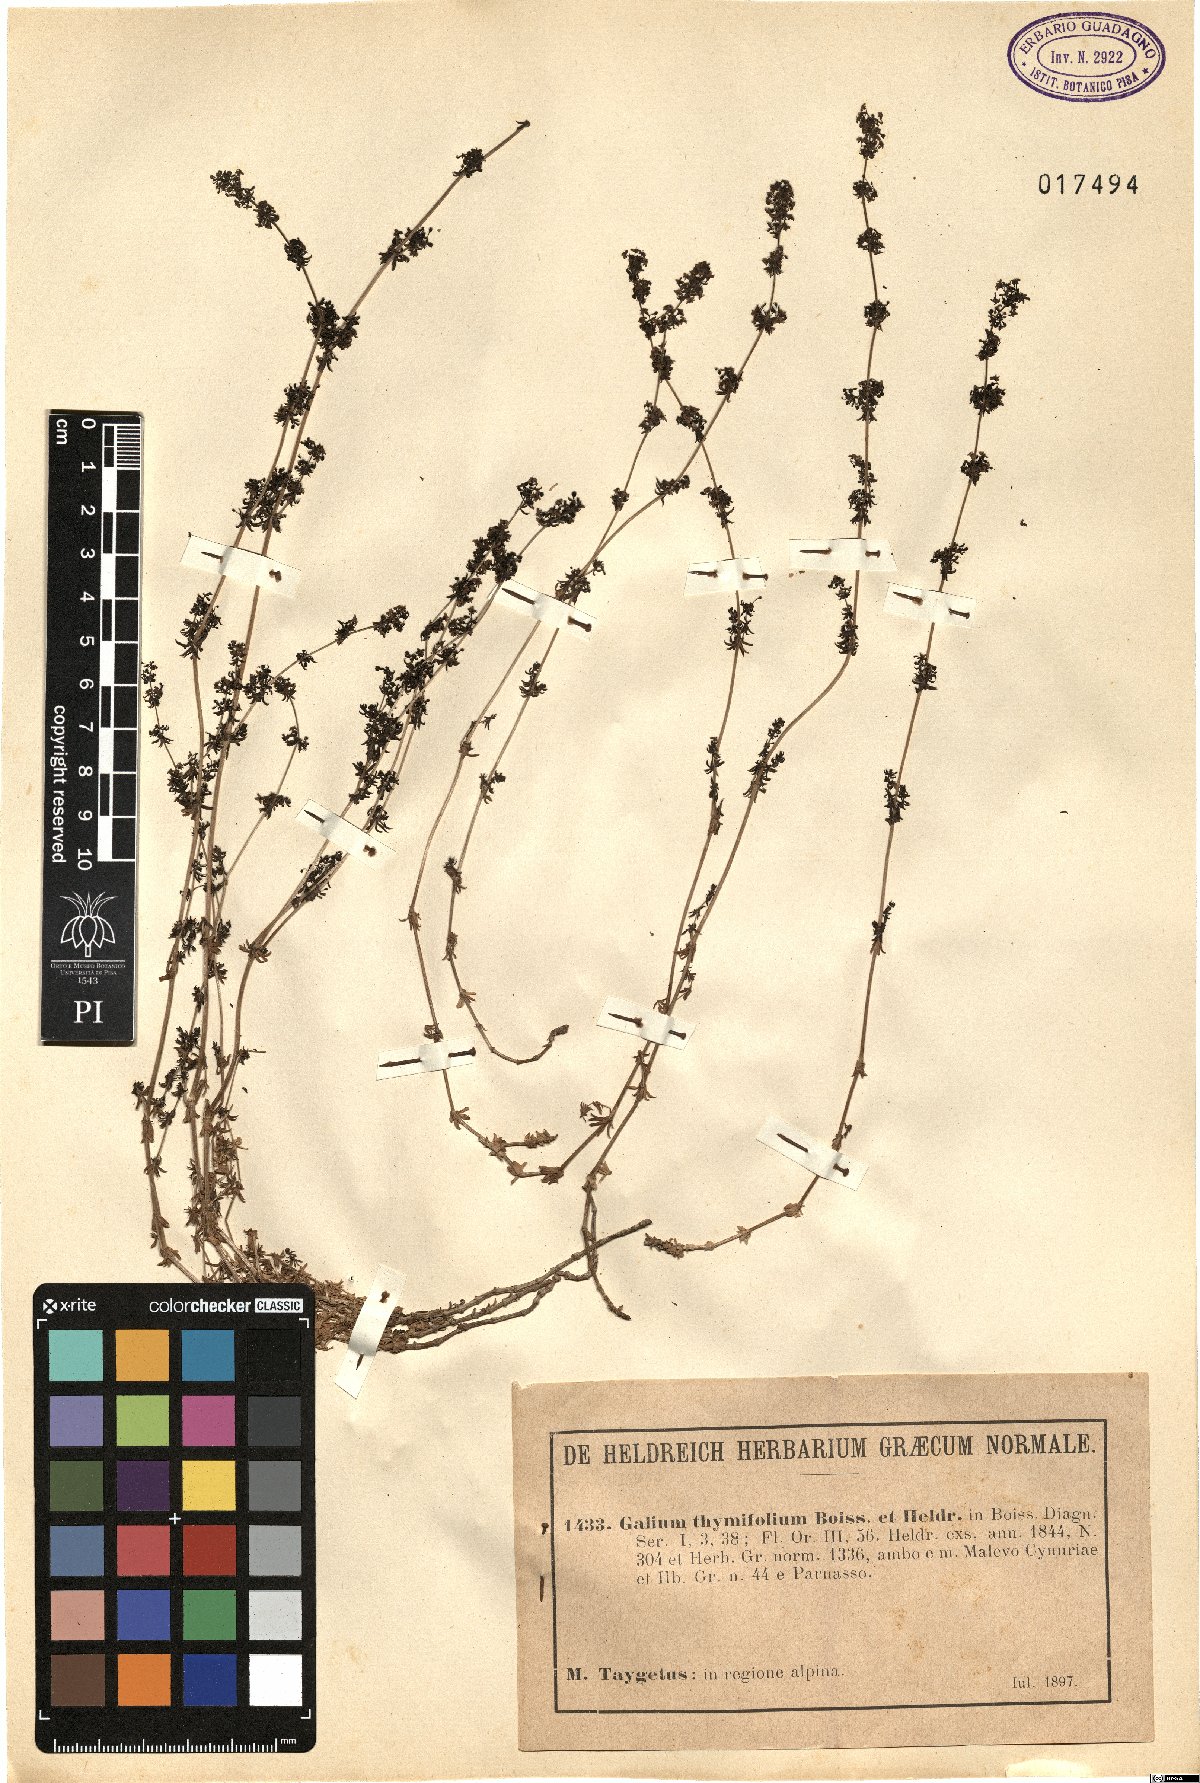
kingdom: Plantae
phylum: Tracheophyta
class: Magnoliopsida
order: Gentianales
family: Rubiaceae
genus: Galium
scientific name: Galium thymifolium
